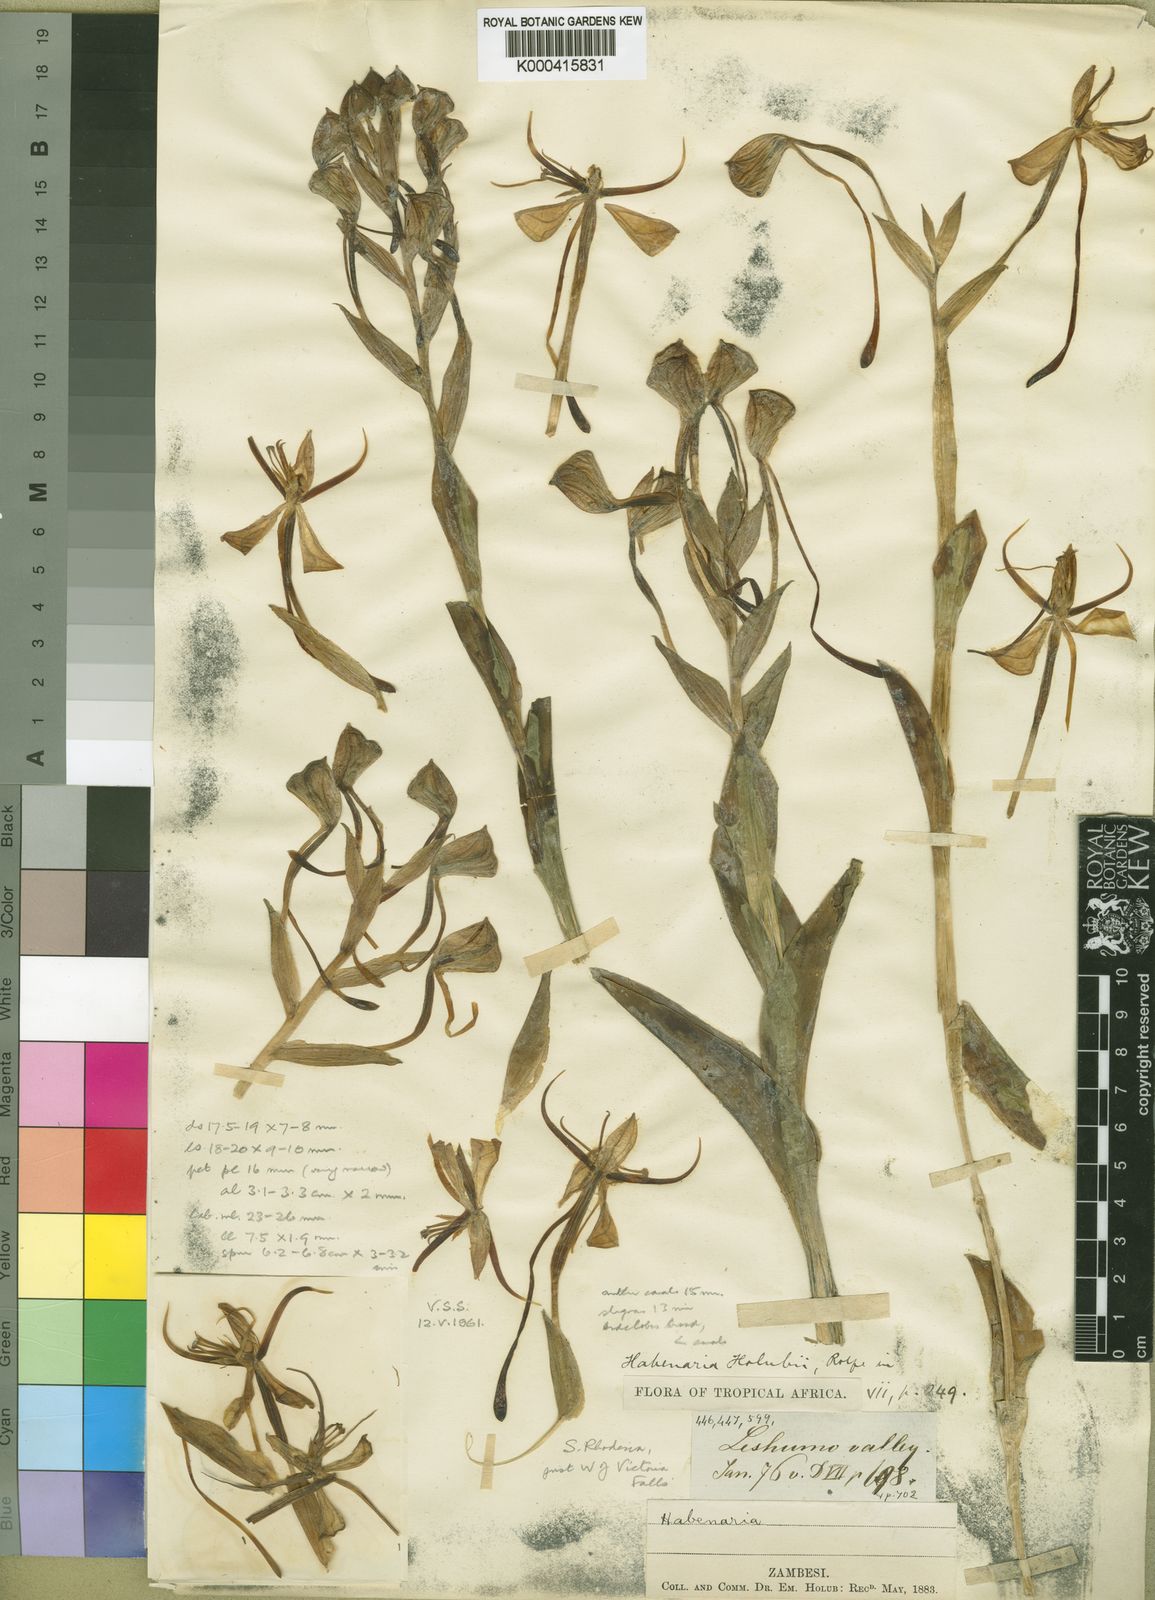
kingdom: Plantae
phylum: Tracheophyta
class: Liliopsida
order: Asparagales
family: Orchidaceae
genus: Habenaria
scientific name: Habenaria holubii
